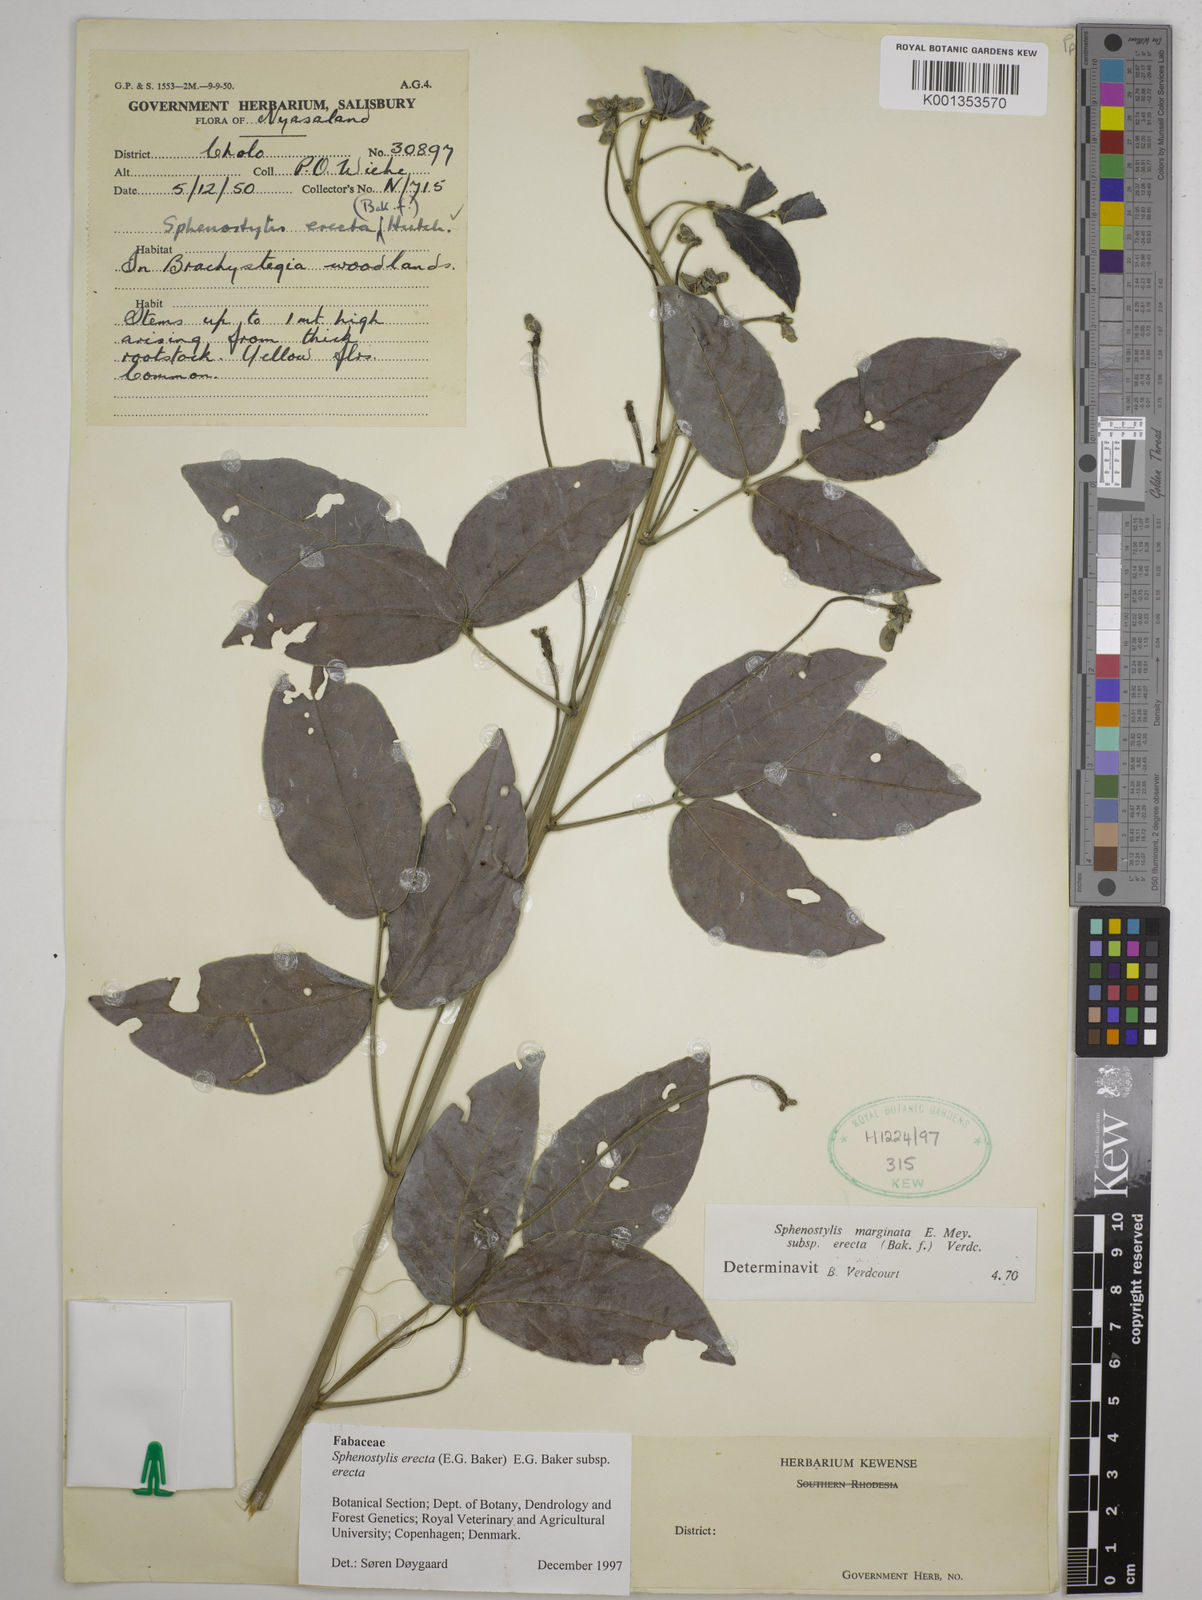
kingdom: Plantae
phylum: Tracheophyta
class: Magnoliopsida
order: Fabales
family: Fabaceae
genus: Sphenostylis
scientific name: Sphenostylis erecta
